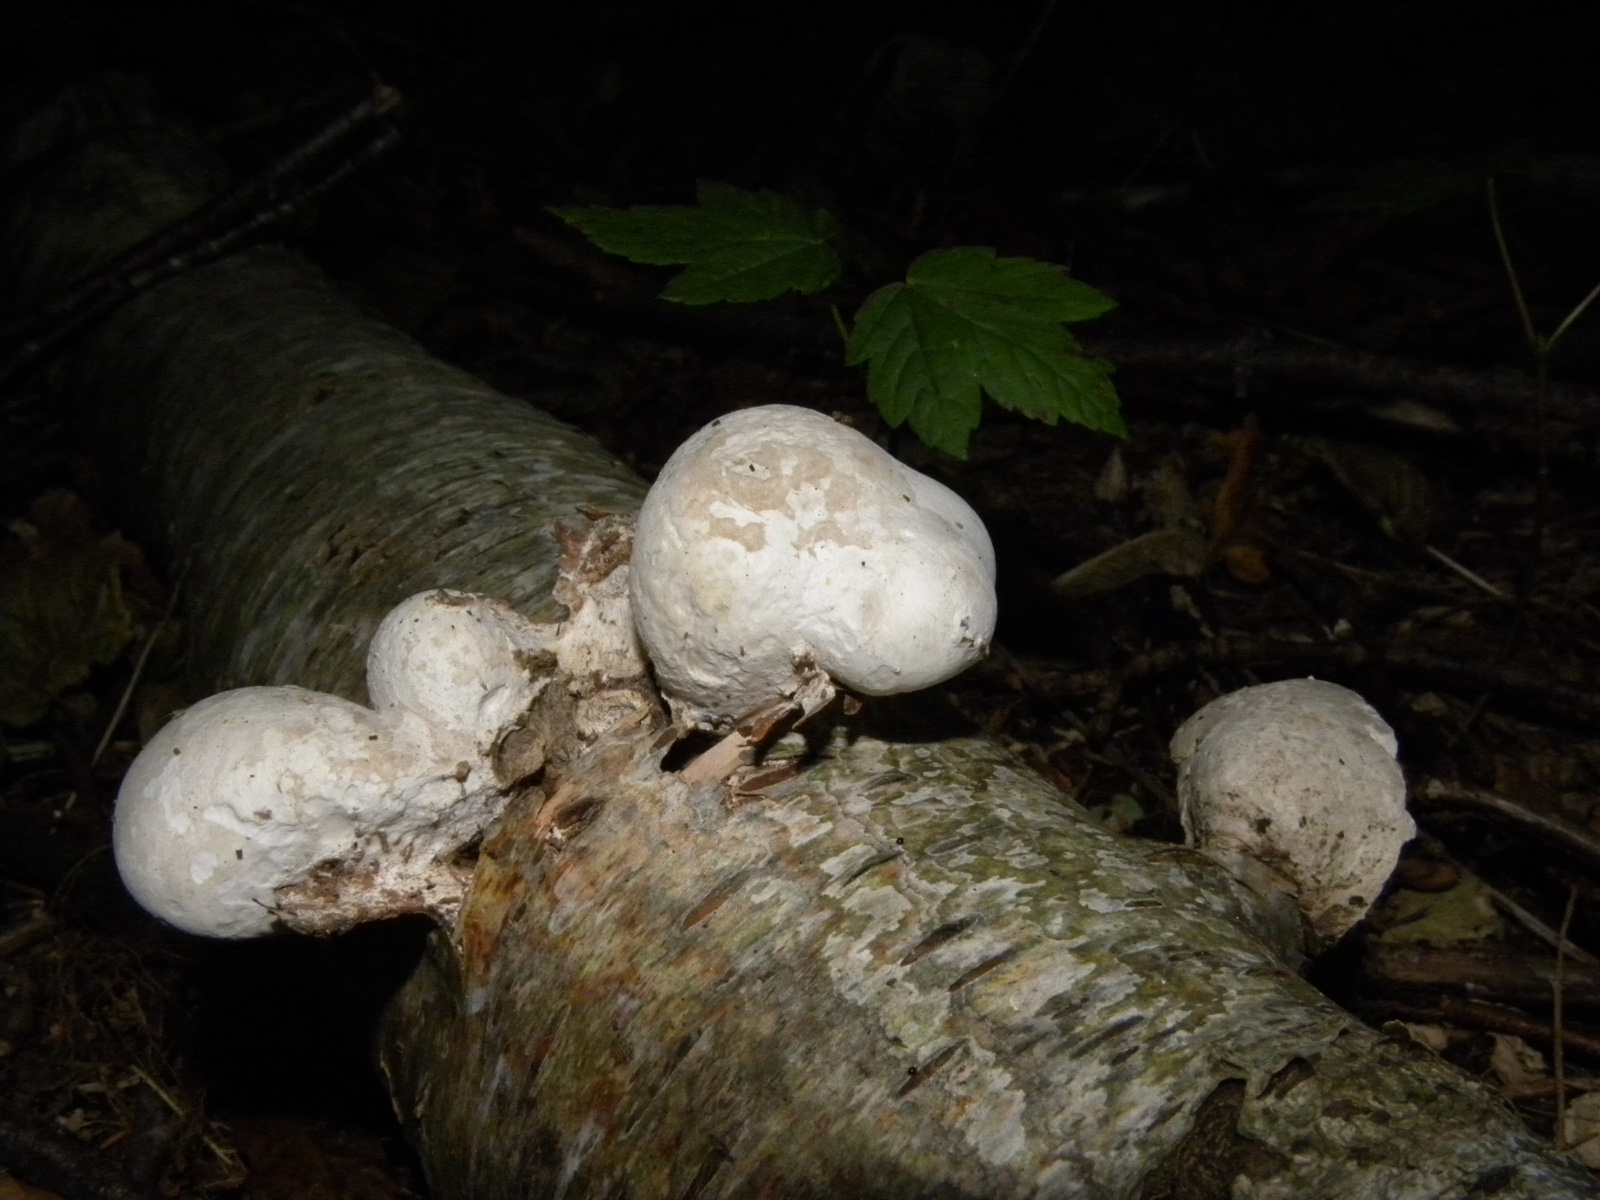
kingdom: Fungi
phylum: Basidiomycota
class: Agaricomycetes
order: Polyporales
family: Fomitopsidaceae
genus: Fomitopsis
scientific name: Fomitopsis betulina
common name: birkeporesvamp
